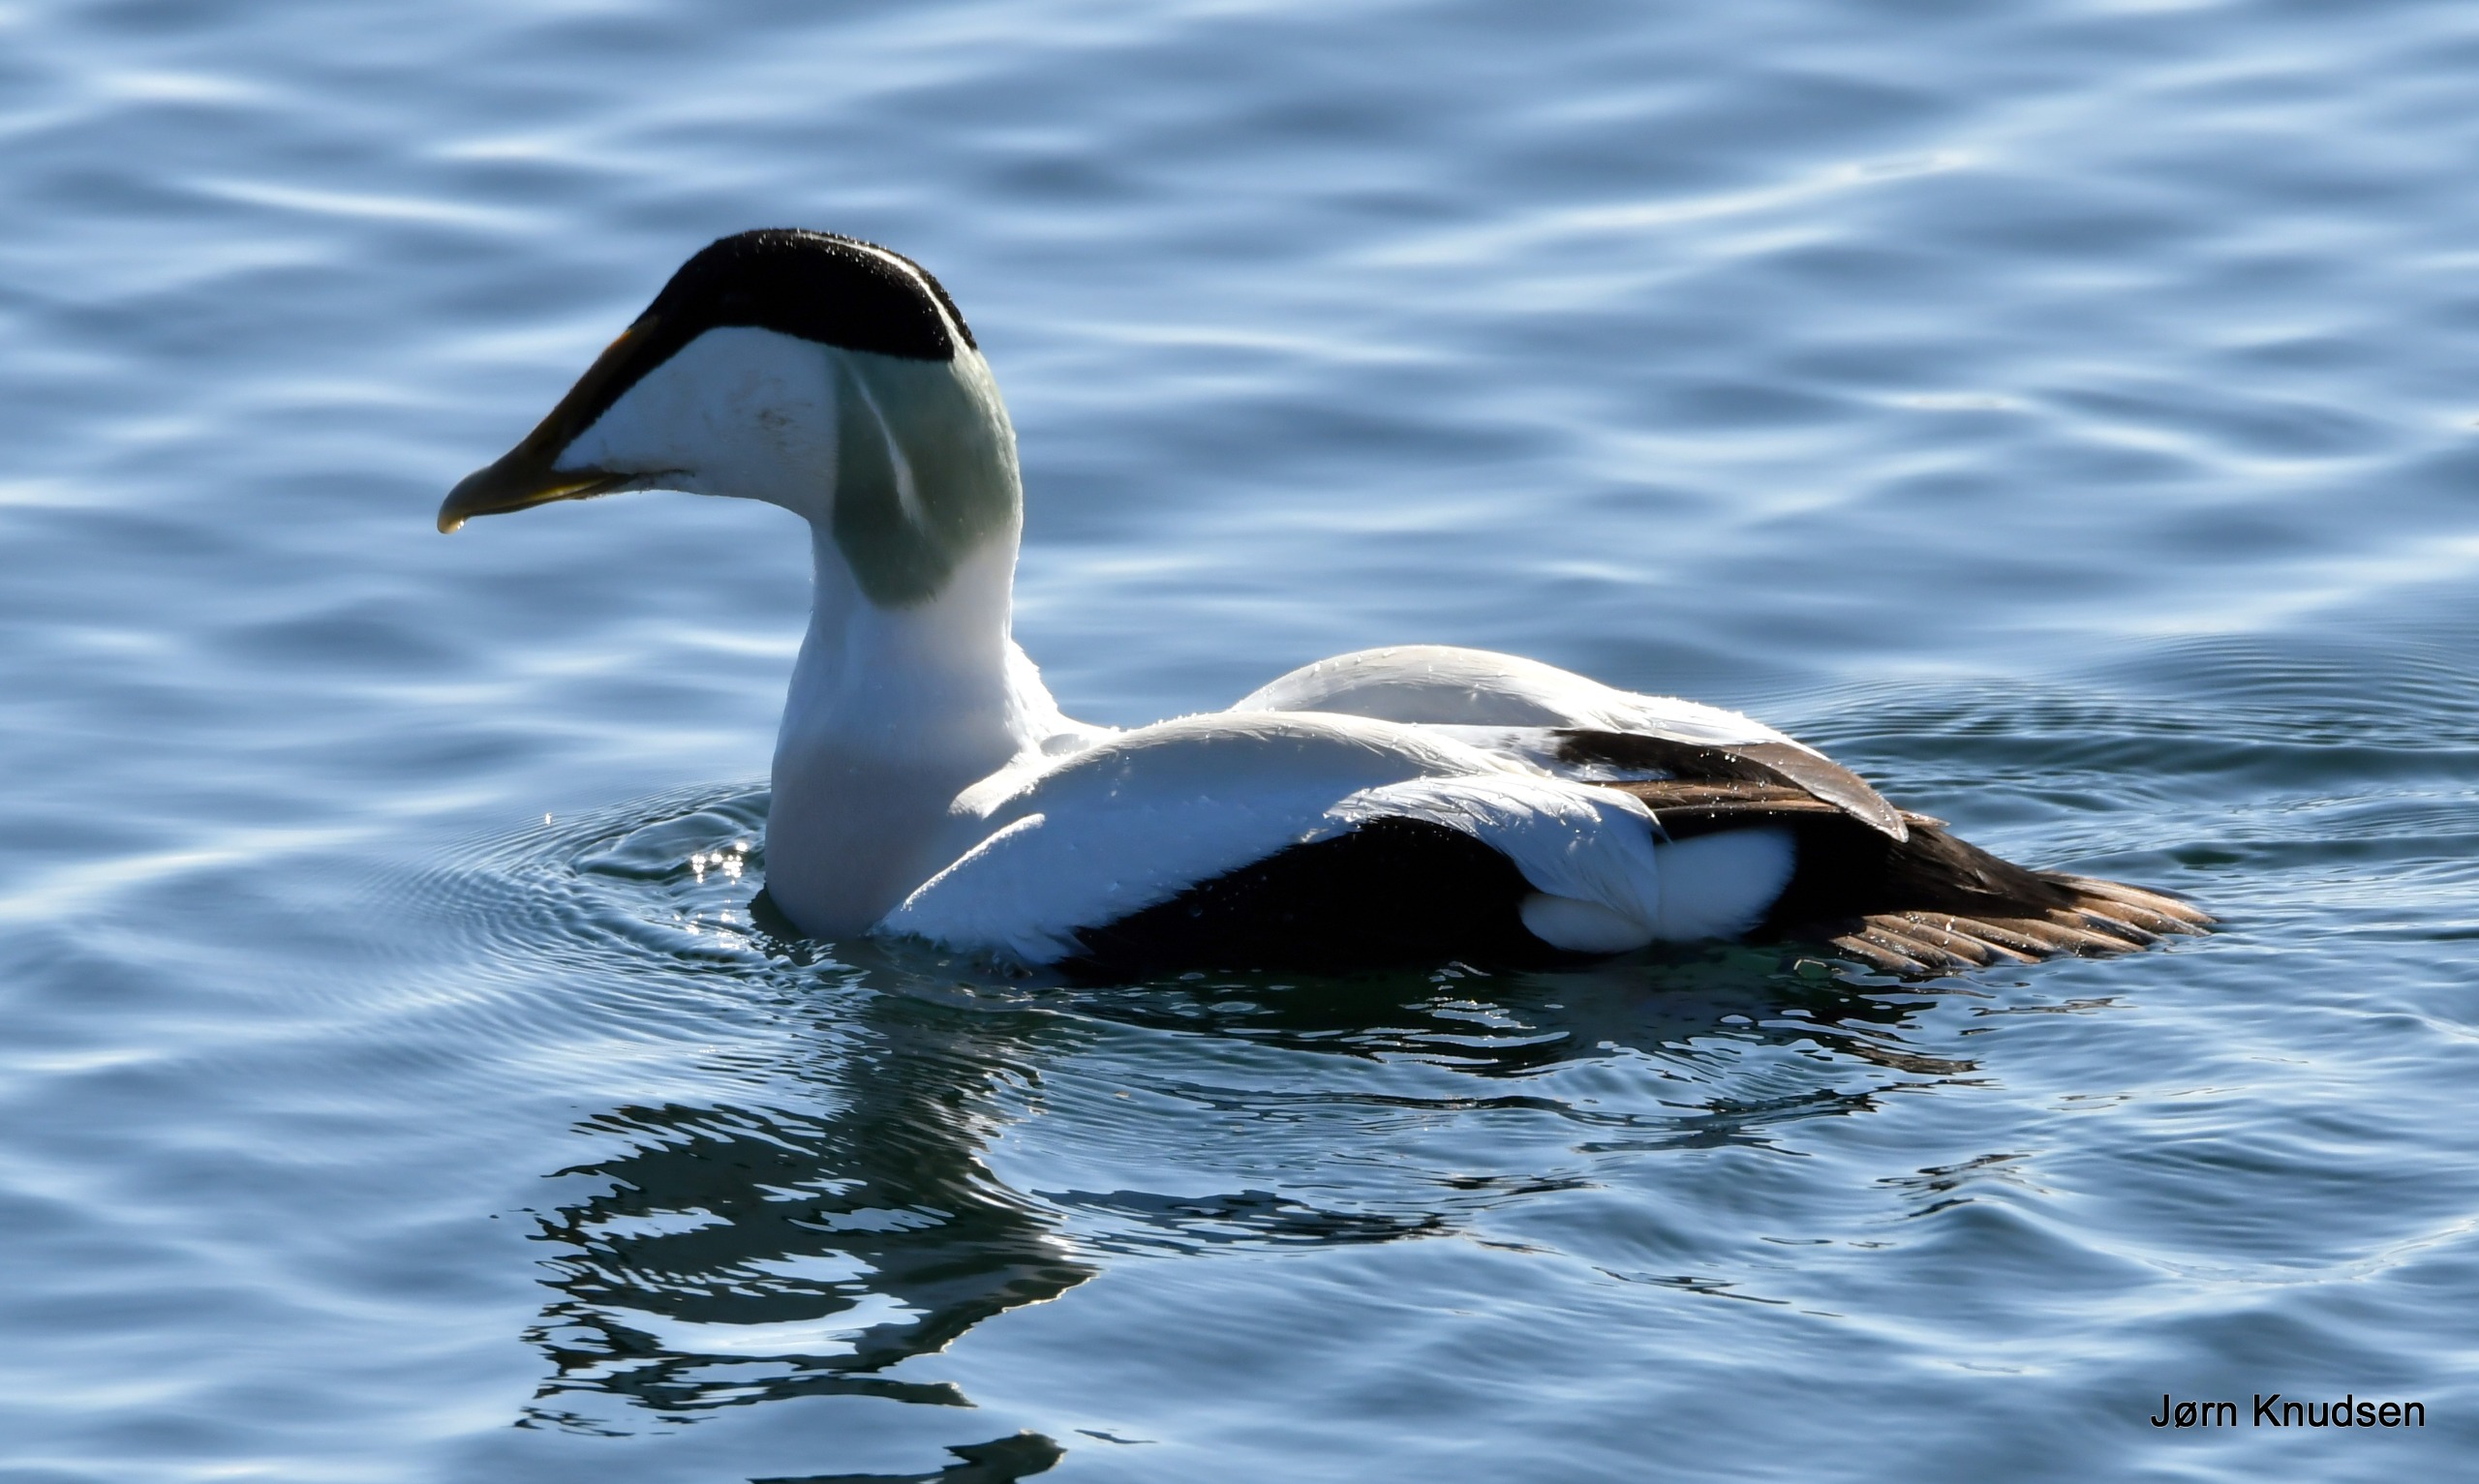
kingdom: Animalia
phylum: Chordata
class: Aves
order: Anseriformes
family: Anatidae
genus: Somateria
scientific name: Somateria mollissima
